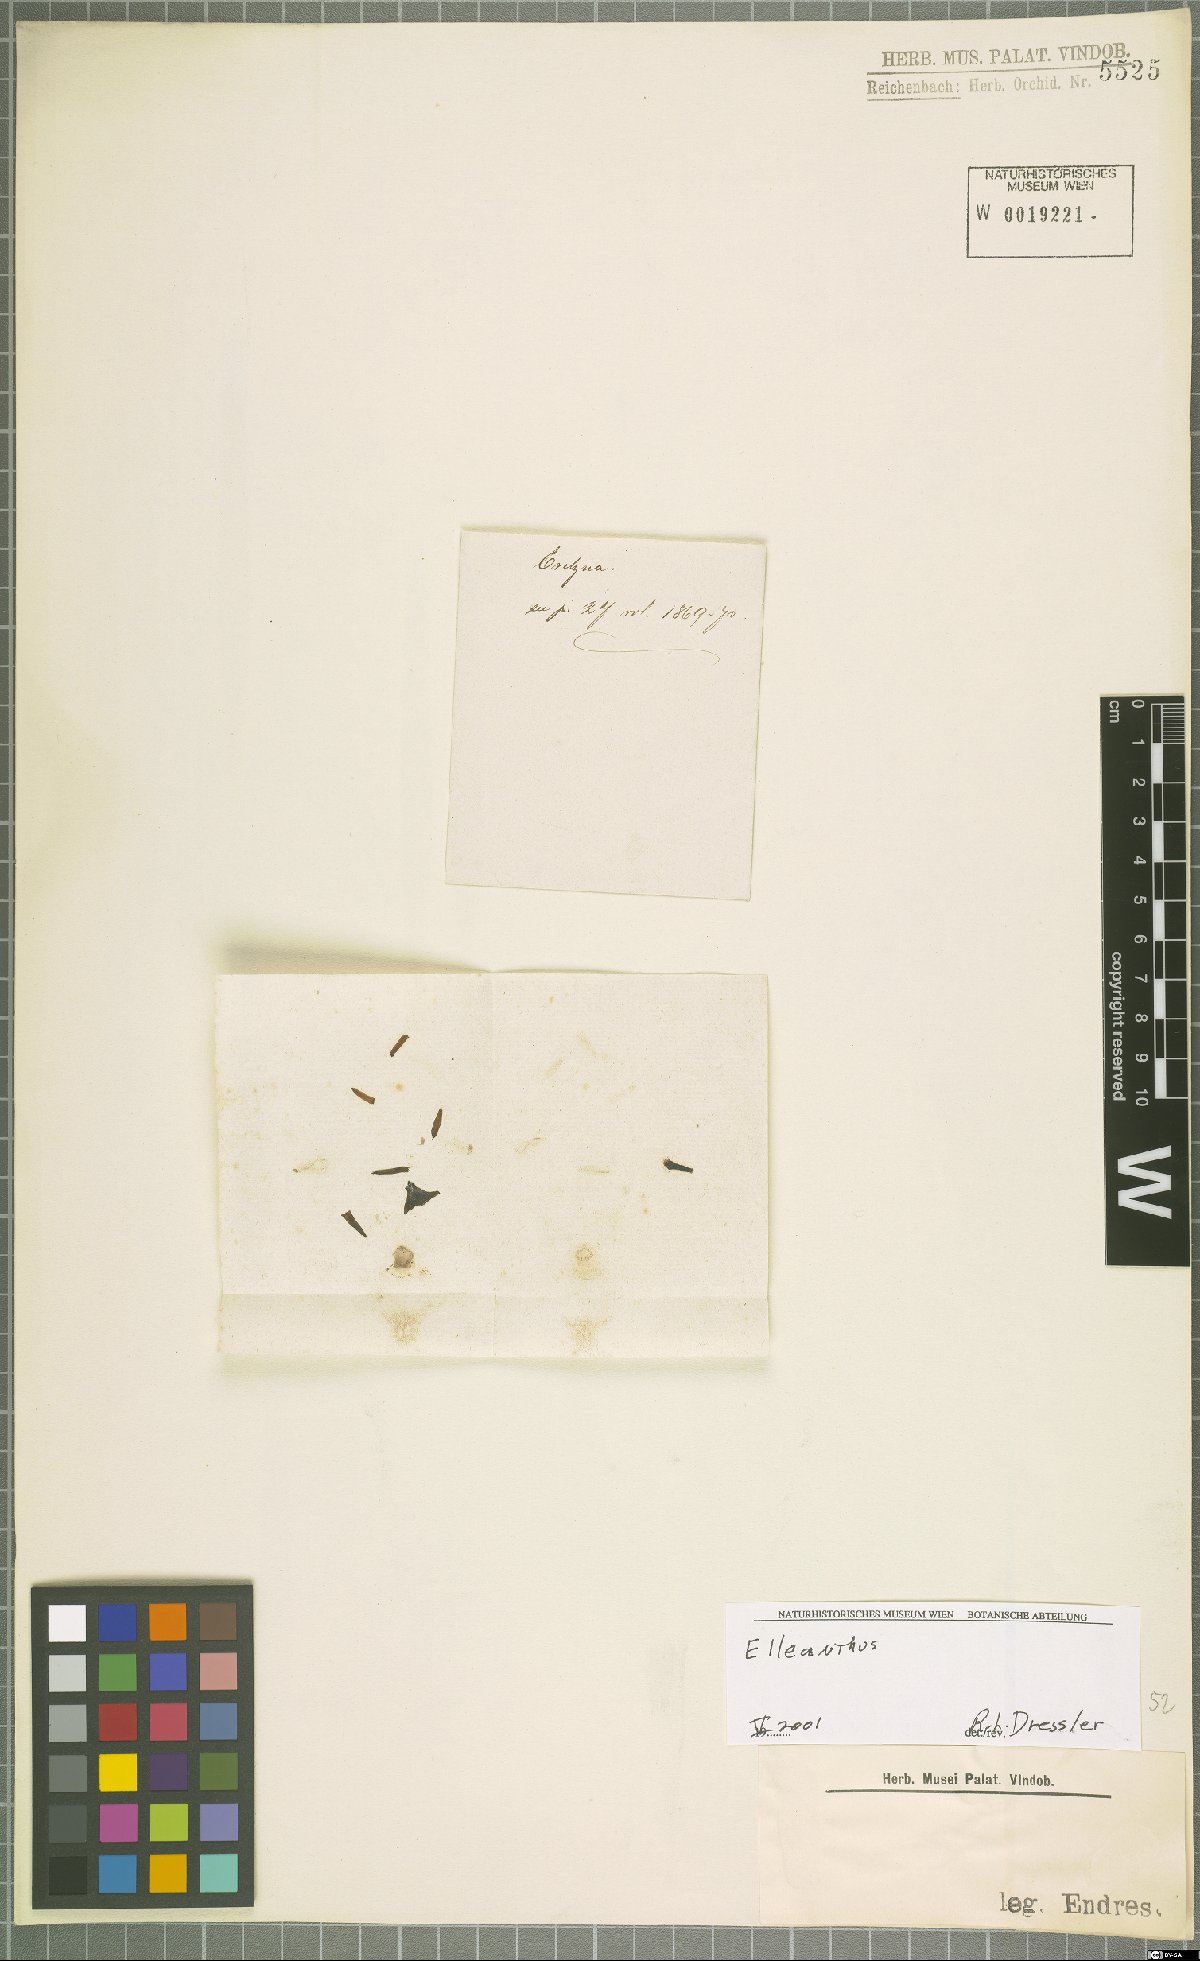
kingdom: Plantae
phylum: Tracheophyta
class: Liliopsida
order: Asparagales
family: Orchidaceae
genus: Elleanthus
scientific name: Elleanthus
